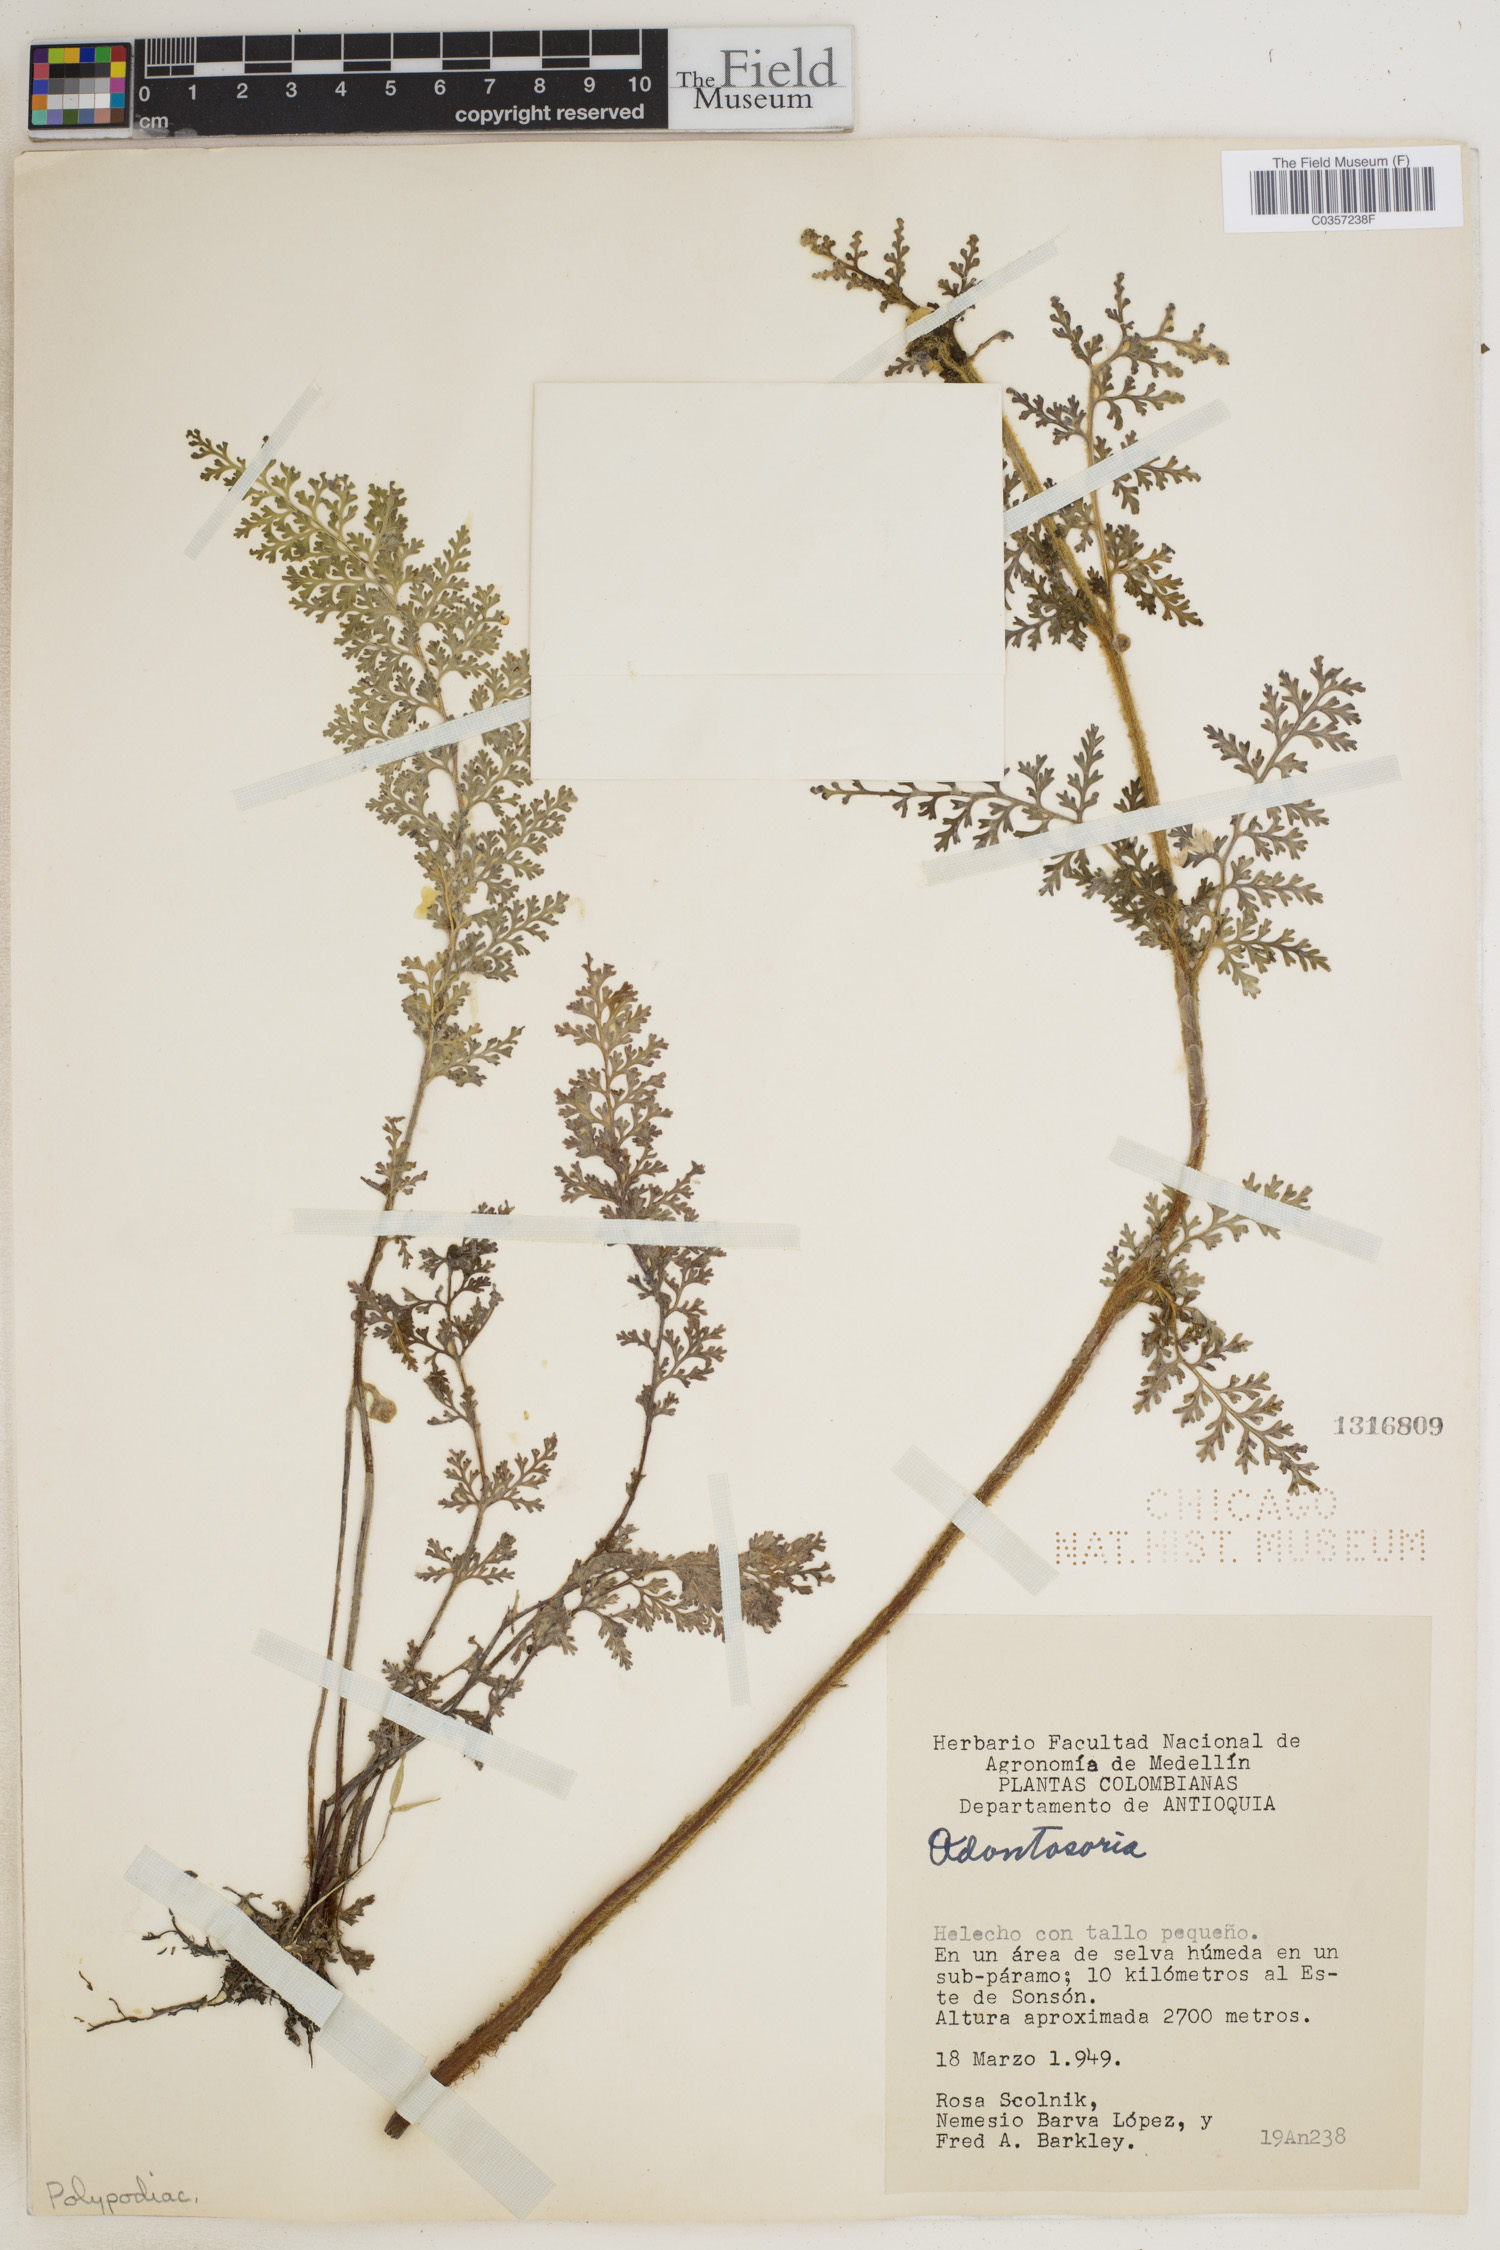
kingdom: Plantae
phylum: Tracheophyta
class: Polypodiopsida
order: Polypodiales
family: Lindsaeaceae
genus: Odontosoria
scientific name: Odontosoria
